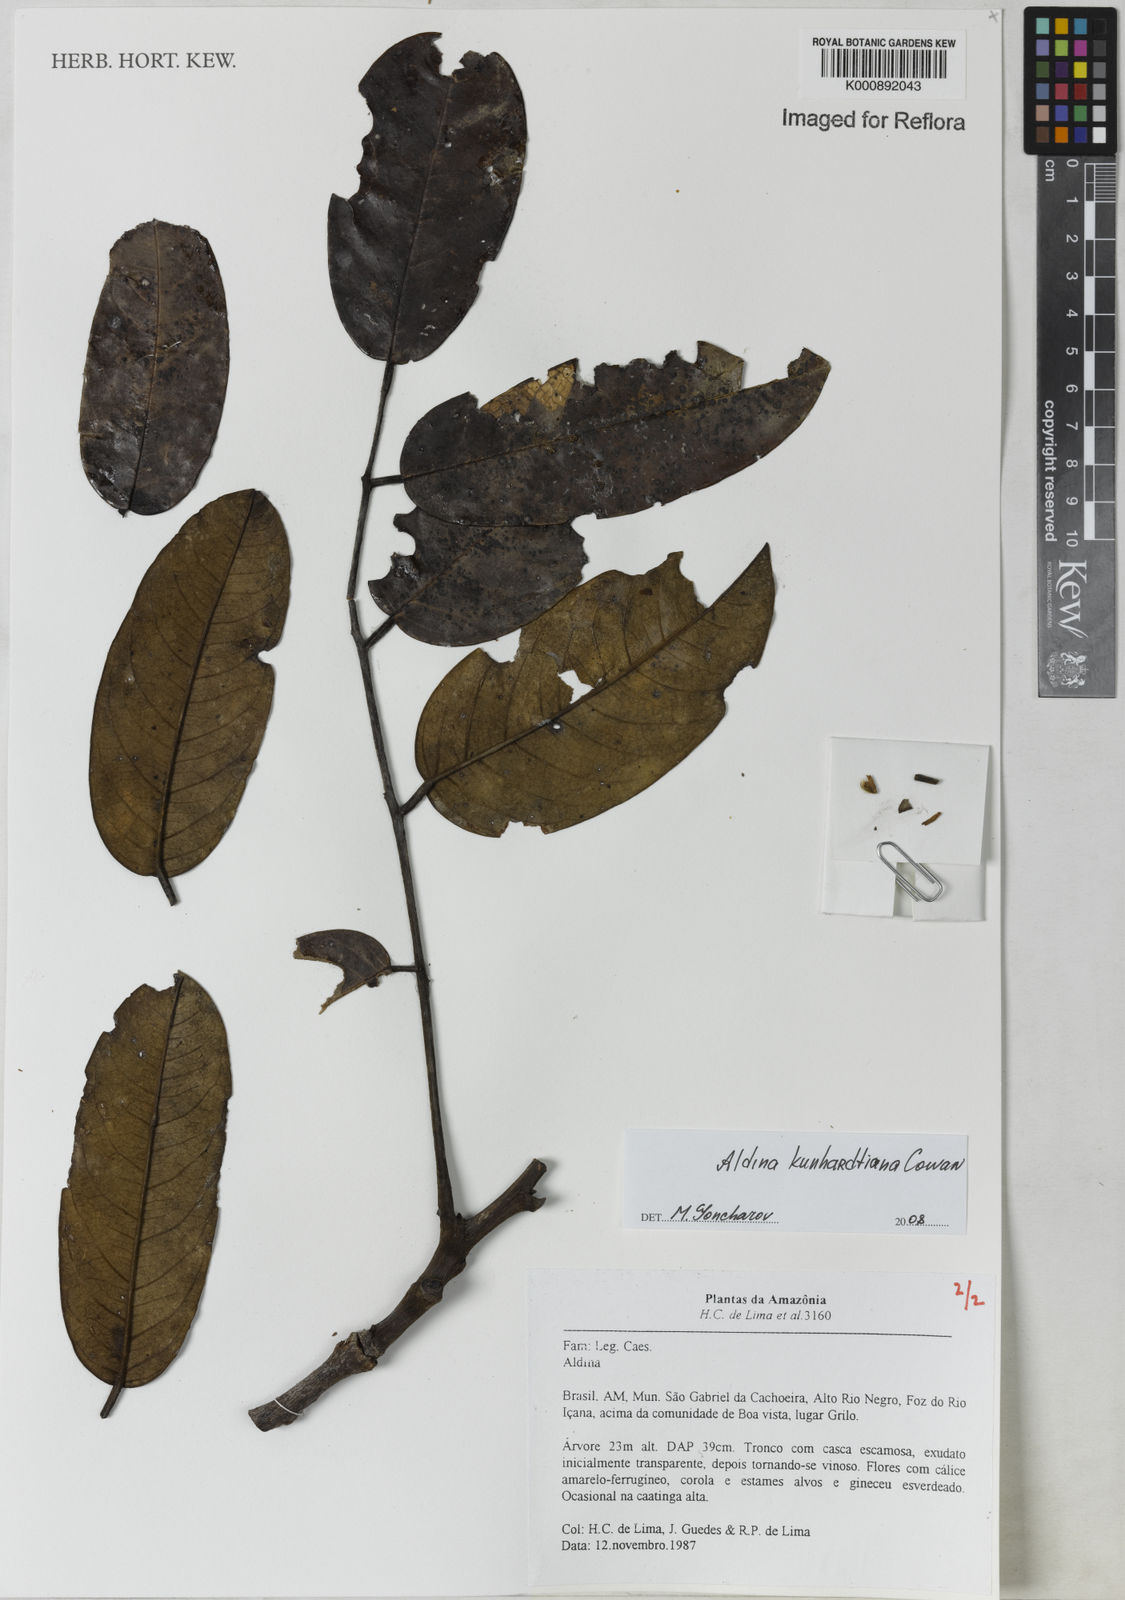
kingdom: Plantae
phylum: Tracheophyta
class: Magnoliopsida
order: Fabales
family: Fabaceae
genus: Aldina
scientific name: Aldina
